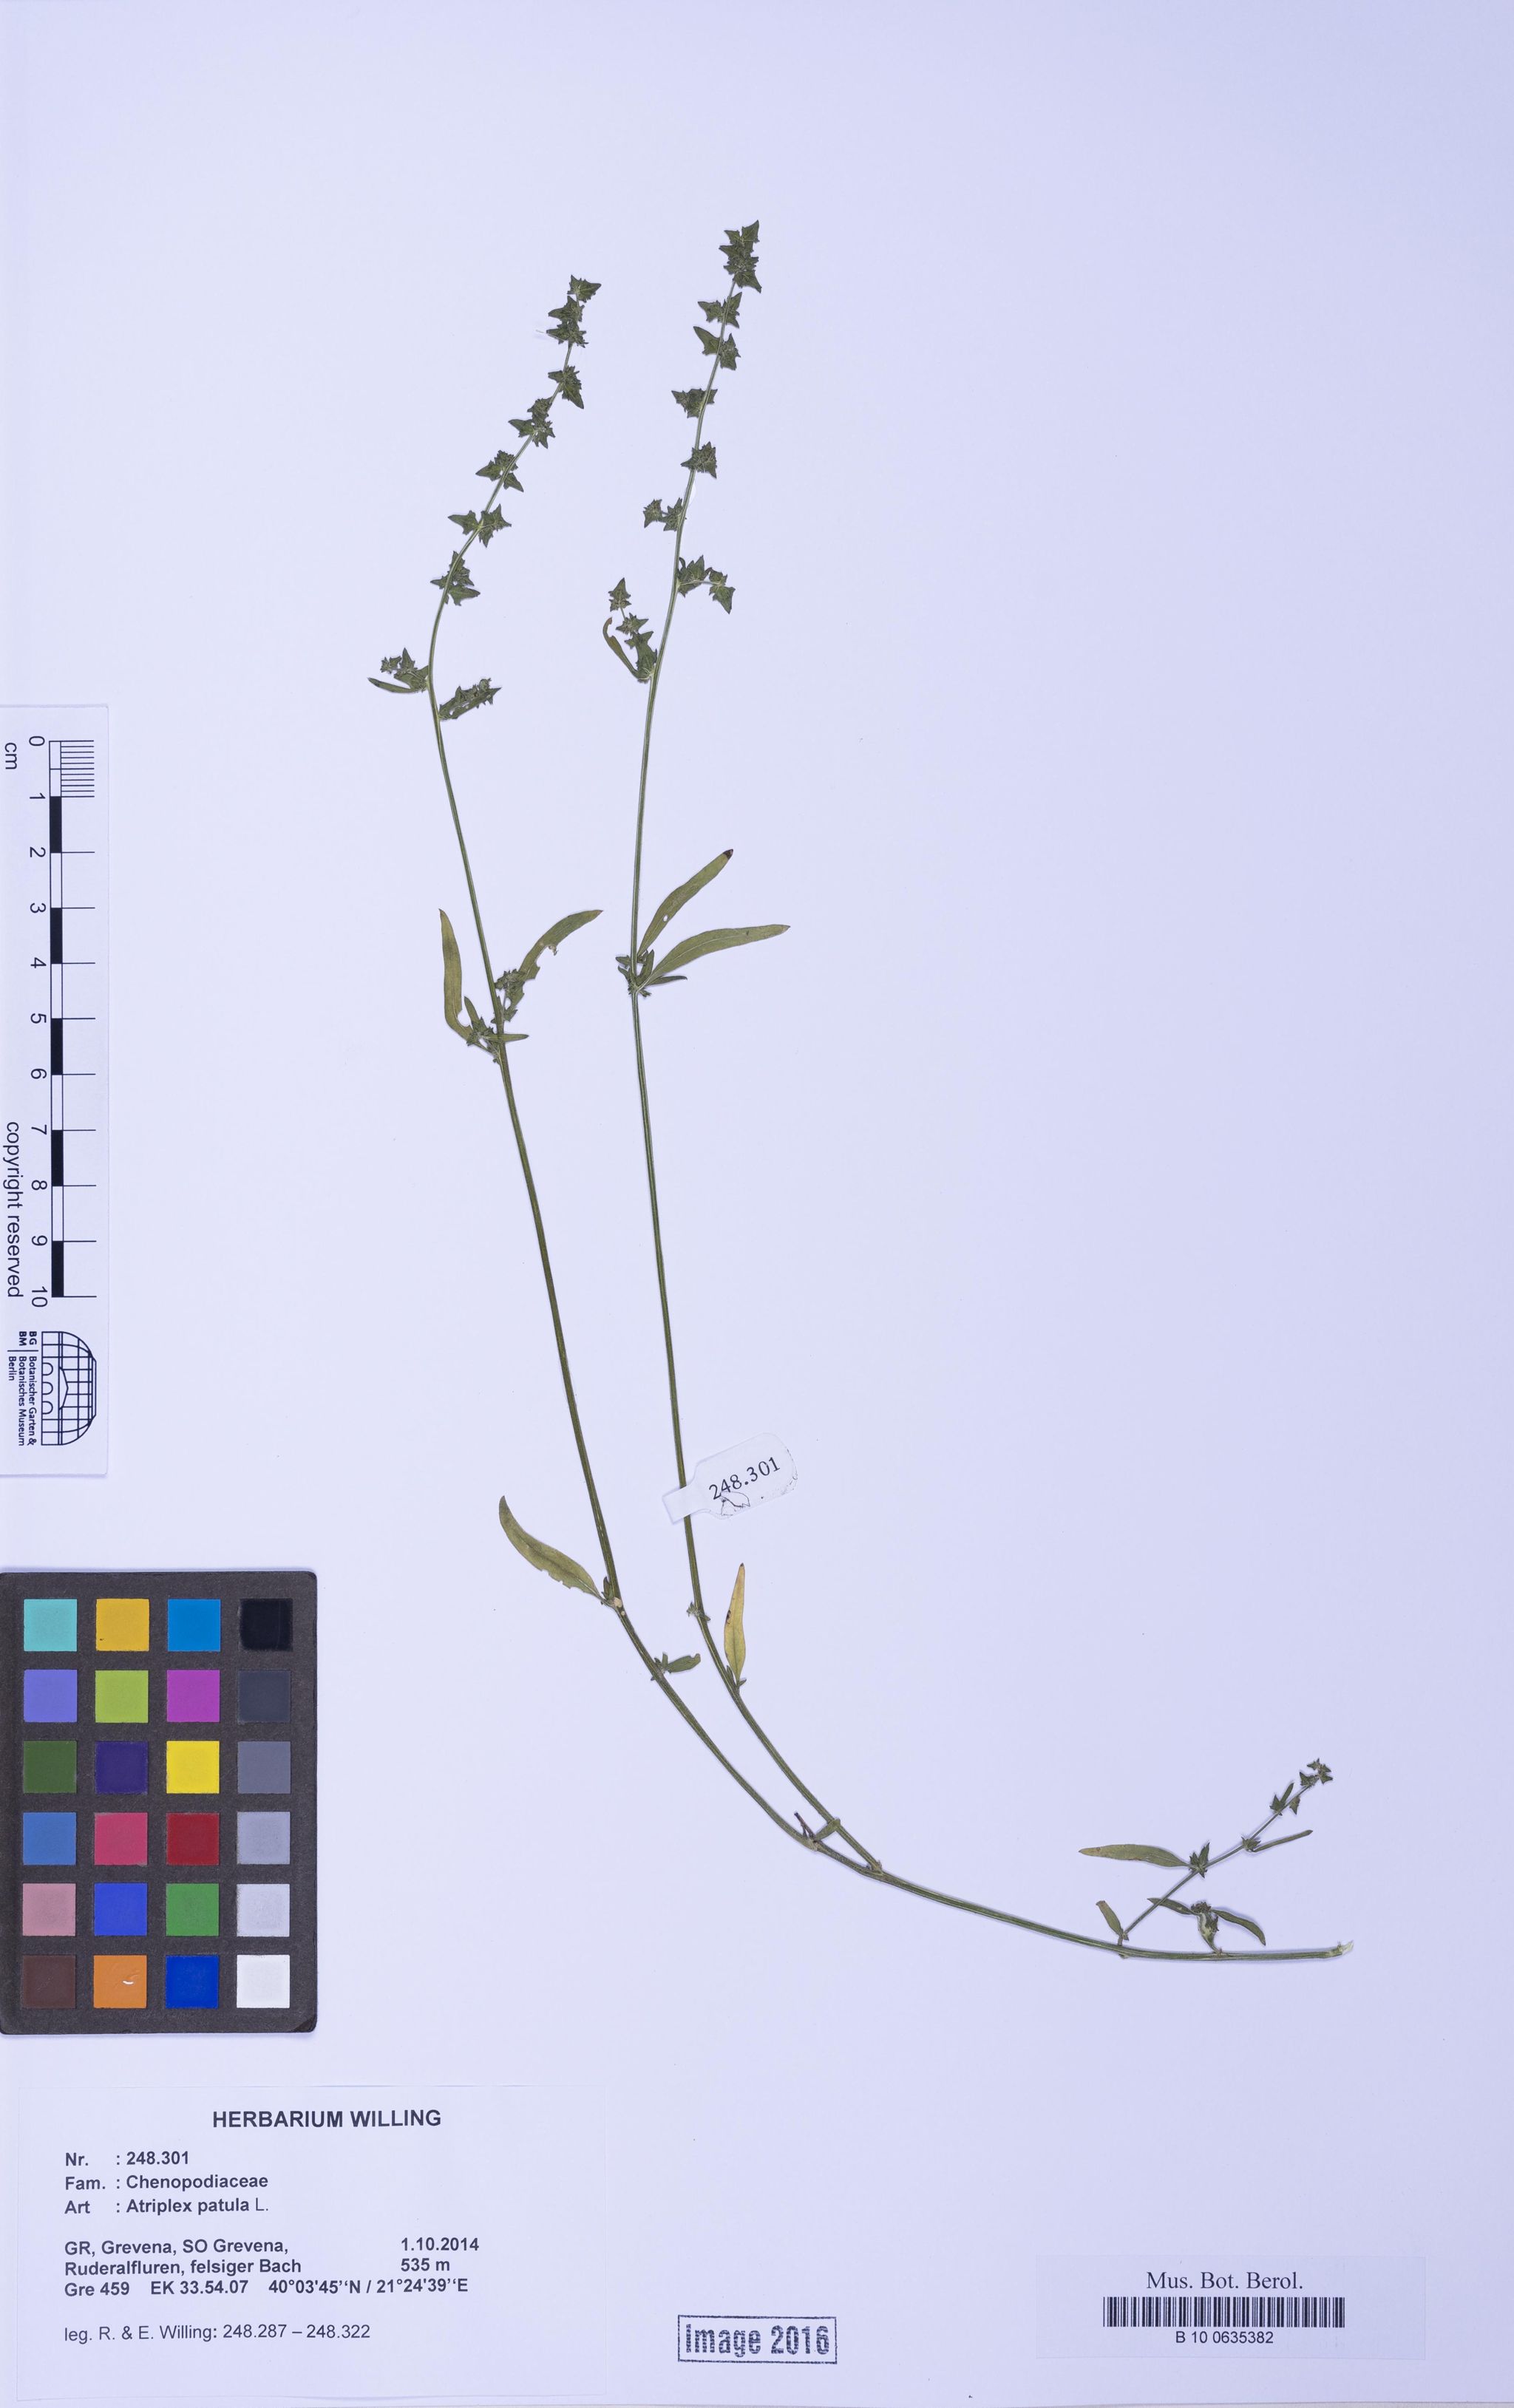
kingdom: Plantae
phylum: Tracheophyta
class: Magnoliopsida
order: Caryophyllales
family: Amaranthaceae
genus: Atriplex
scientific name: Atriplex patula
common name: Common orache
